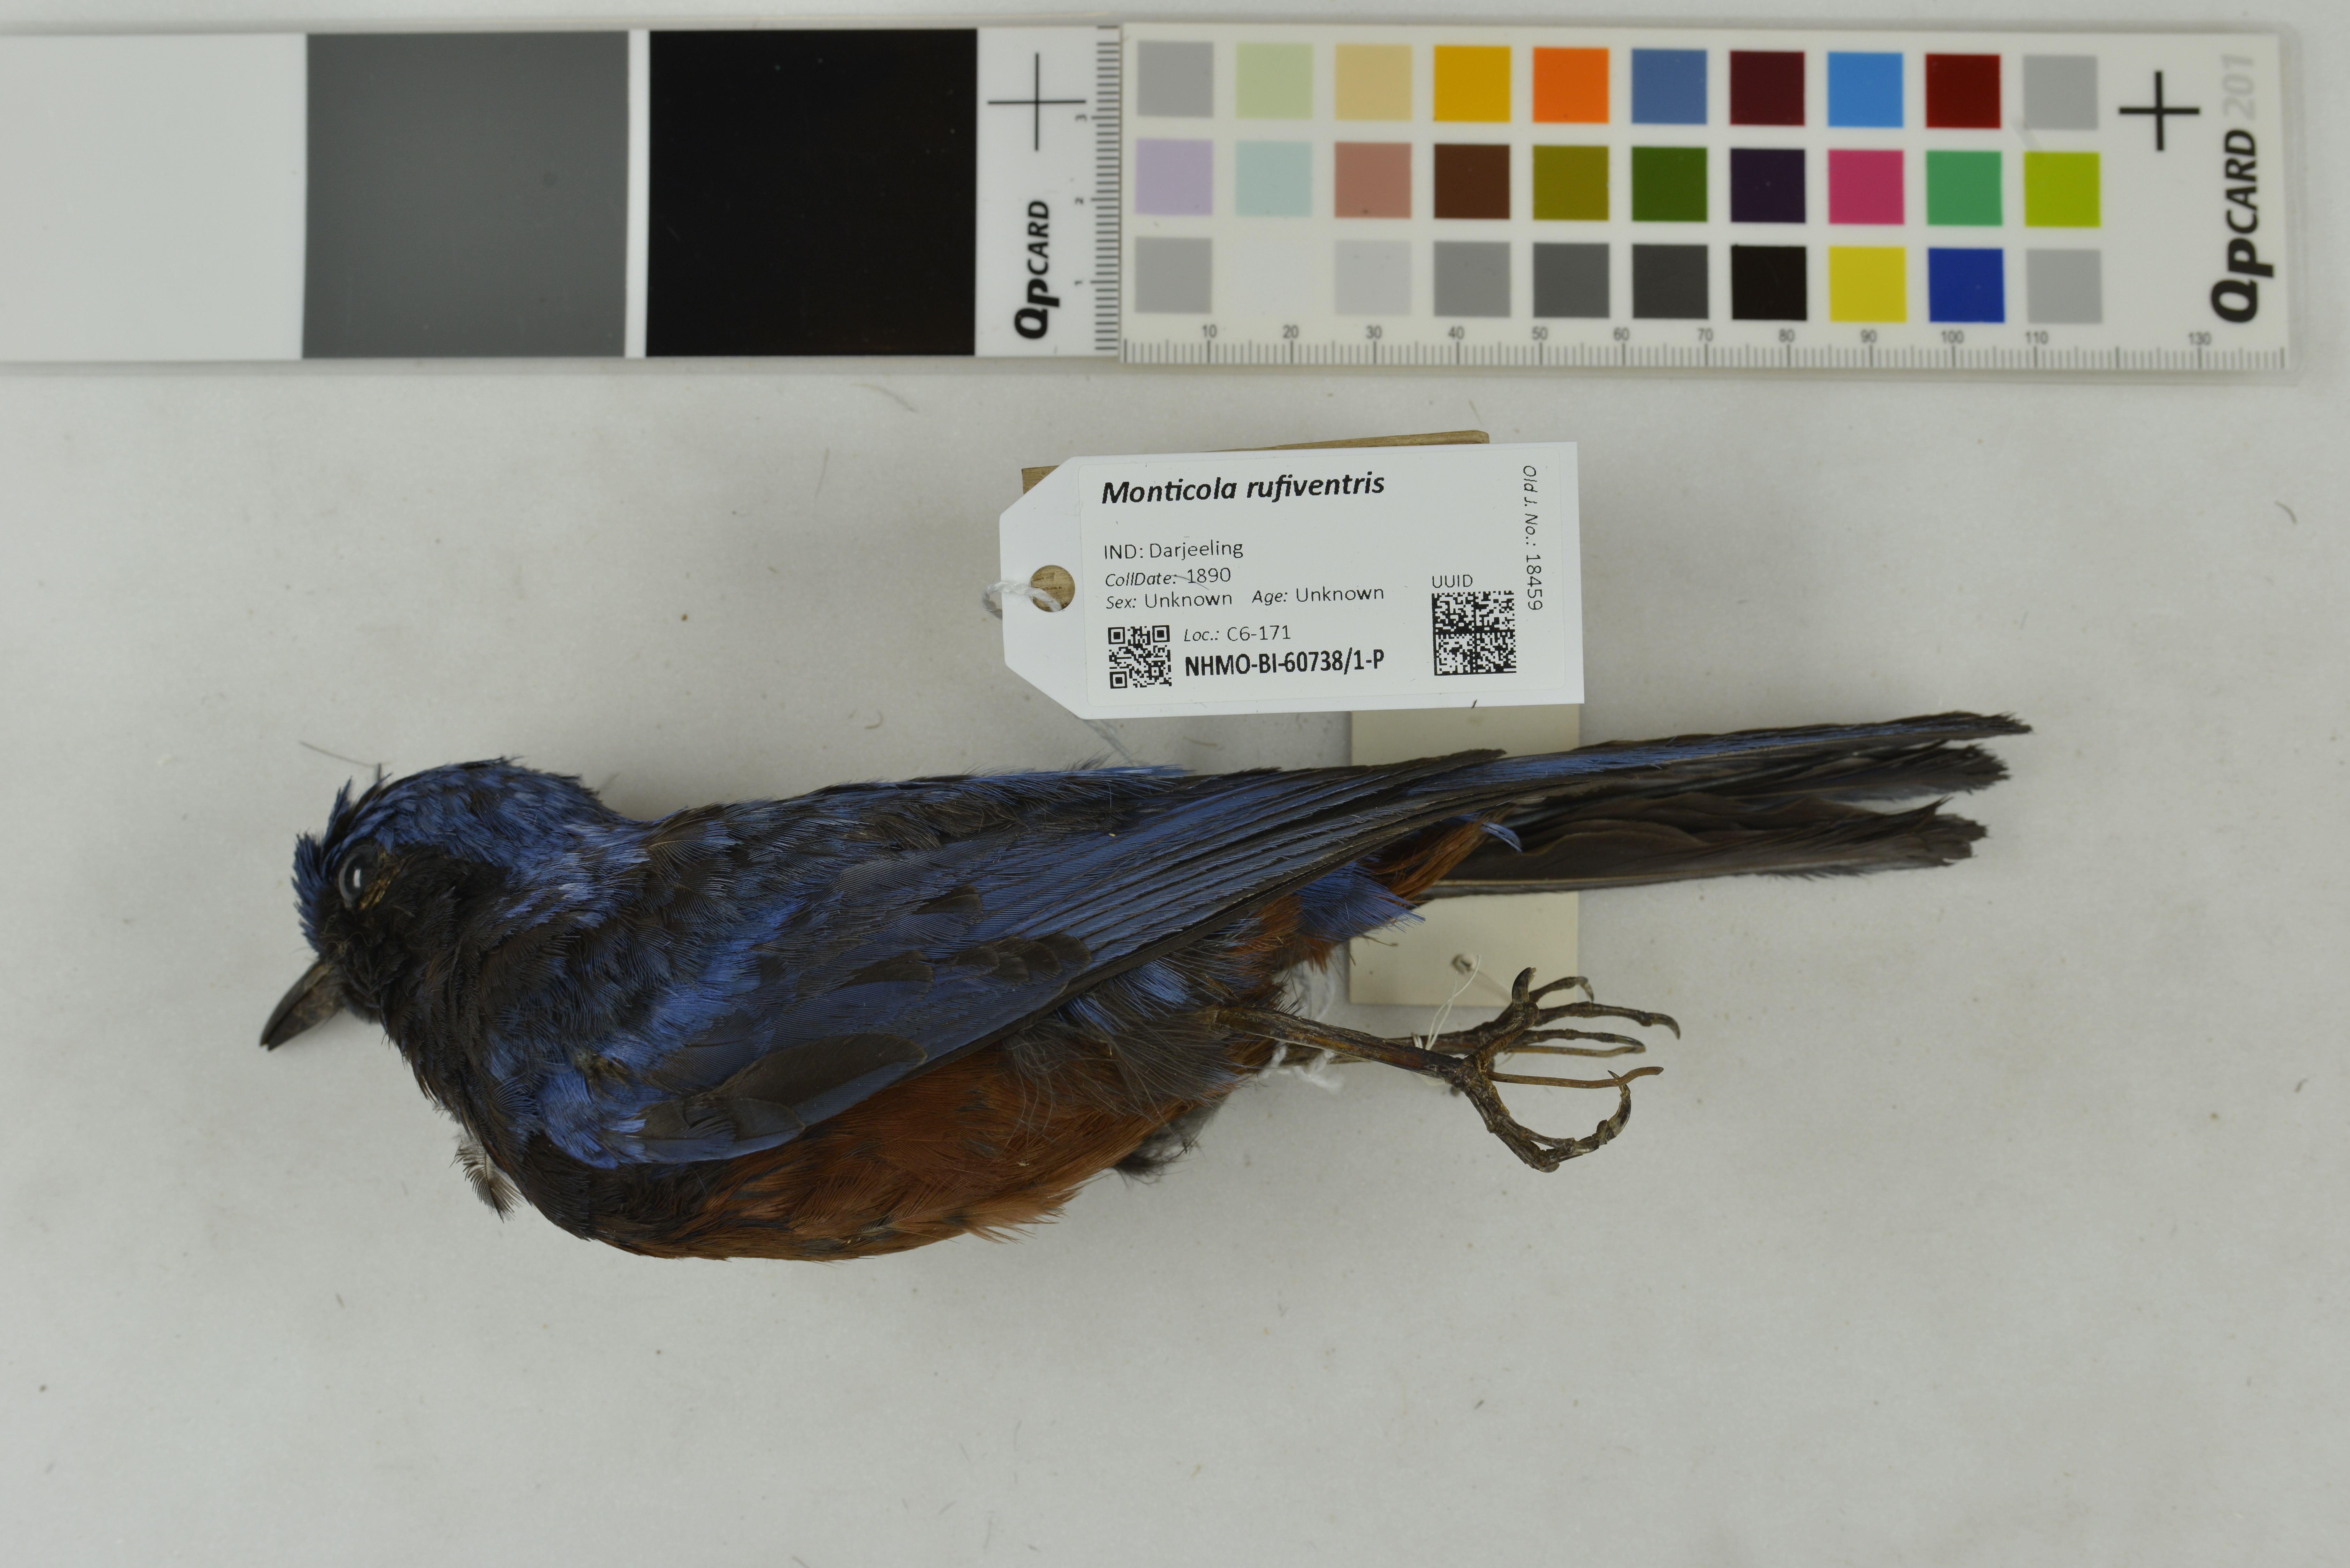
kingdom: Animalia
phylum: Chordata
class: Aves
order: Passeriformes
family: Muscicapidae
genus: Monticola
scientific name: Monticola rufiventris
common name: Chestnut-bellied rock thrush
